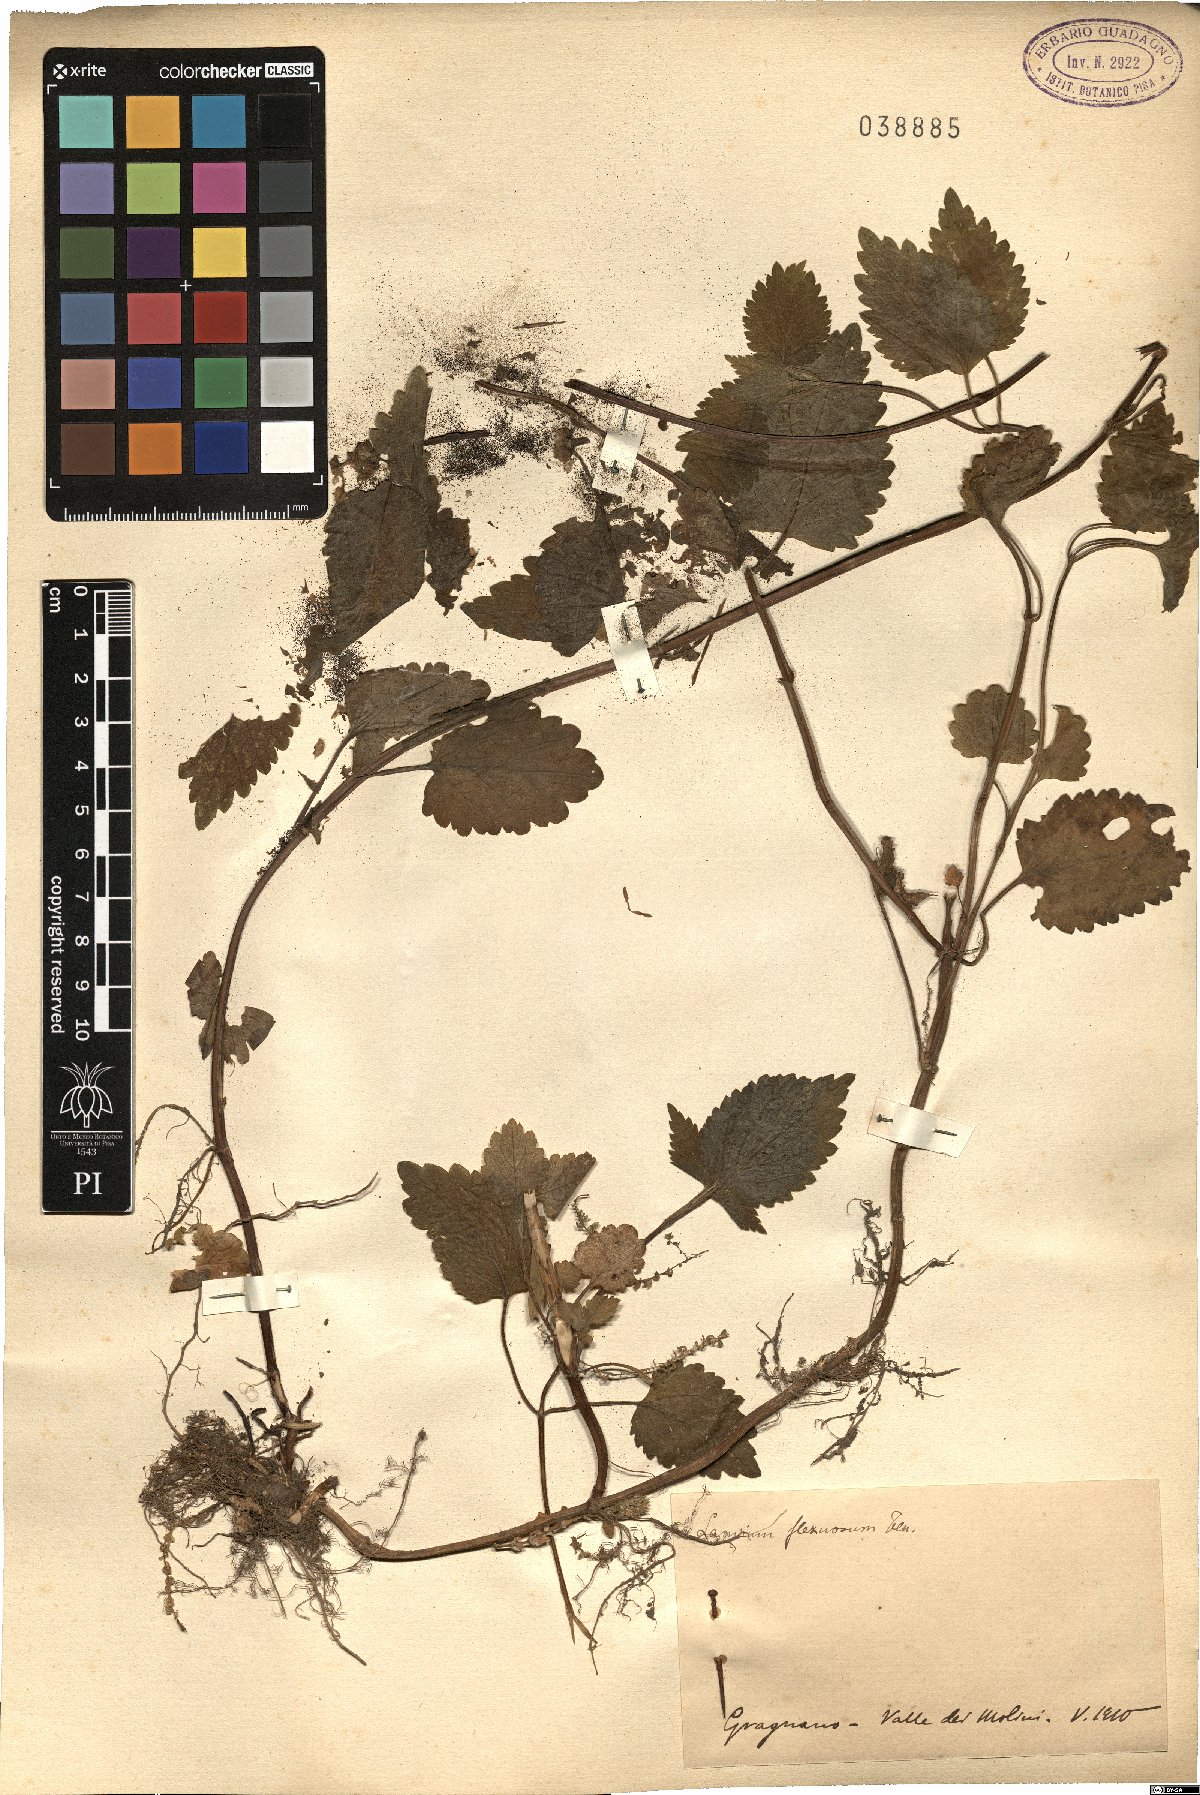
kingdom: Plantae
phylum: Tracheophyta
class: Magnoliopsida
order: Lamiales
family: Lamiaceae
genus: Lamium
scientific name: Lamium flexuosum
